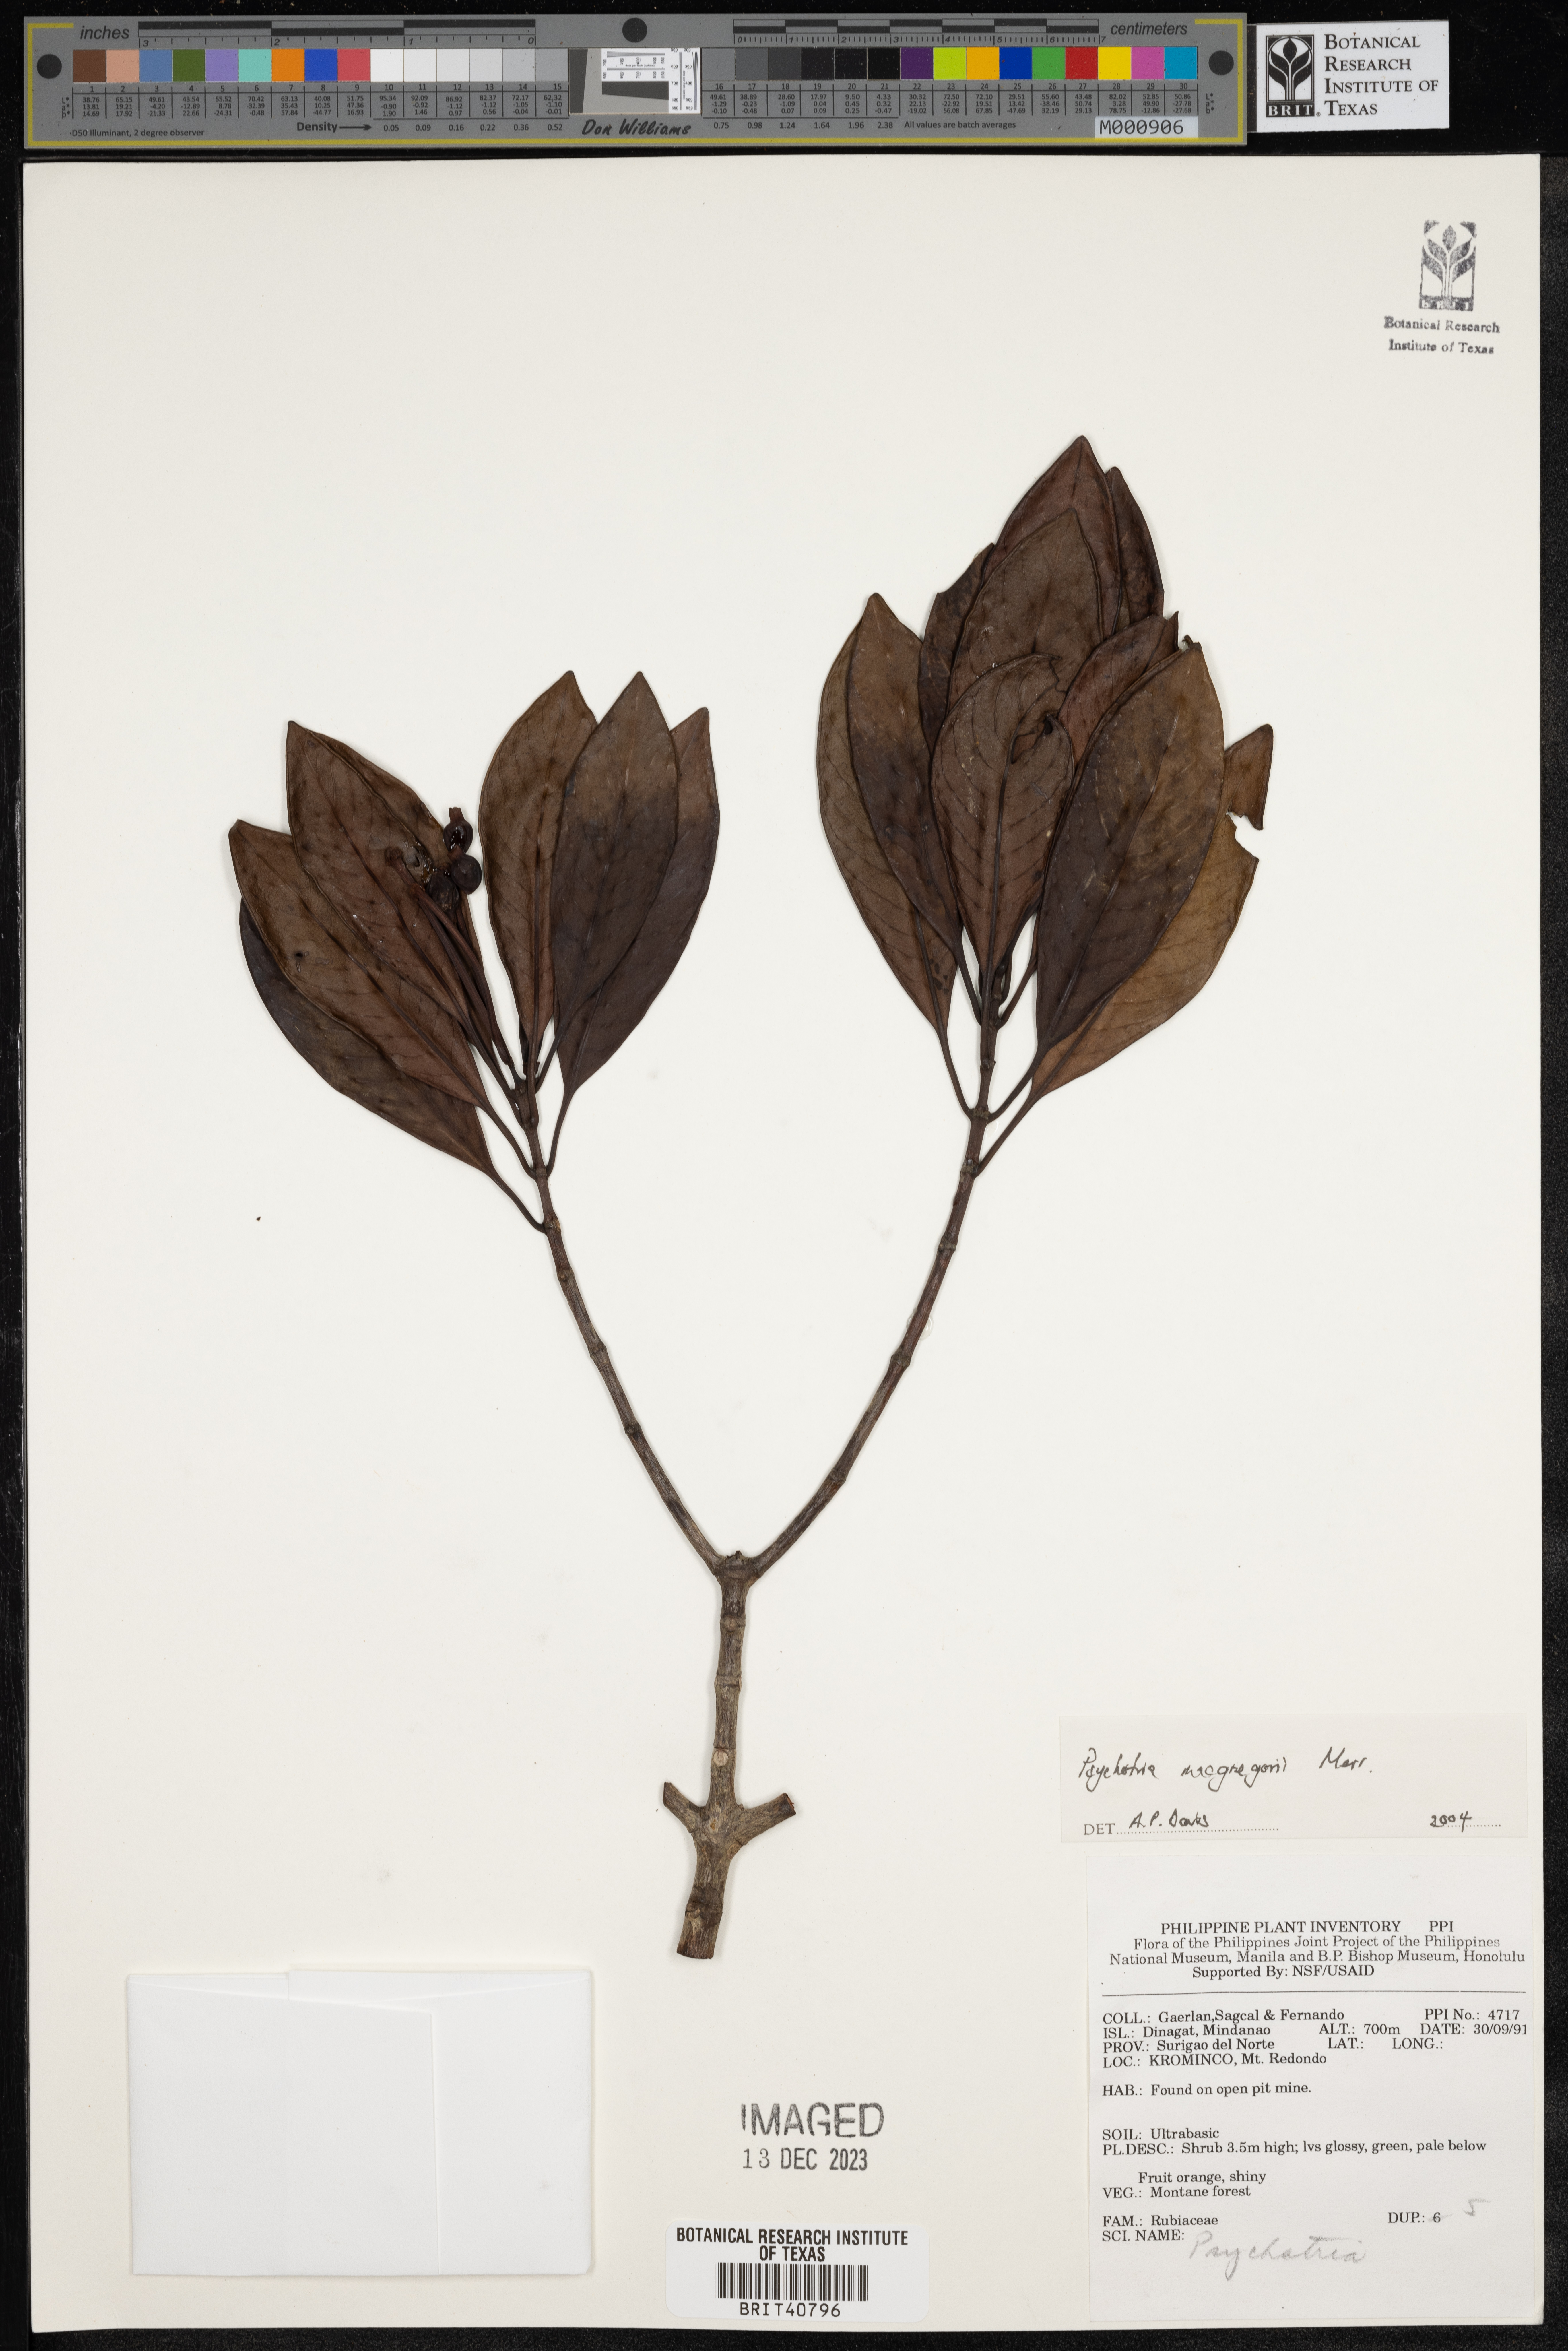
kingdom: Plantae
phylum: Tracheophyta
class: Magnoliopsida
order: Gentianales
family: Rubiaceae
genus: Psychotria
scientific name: Psychotria macgregorii
